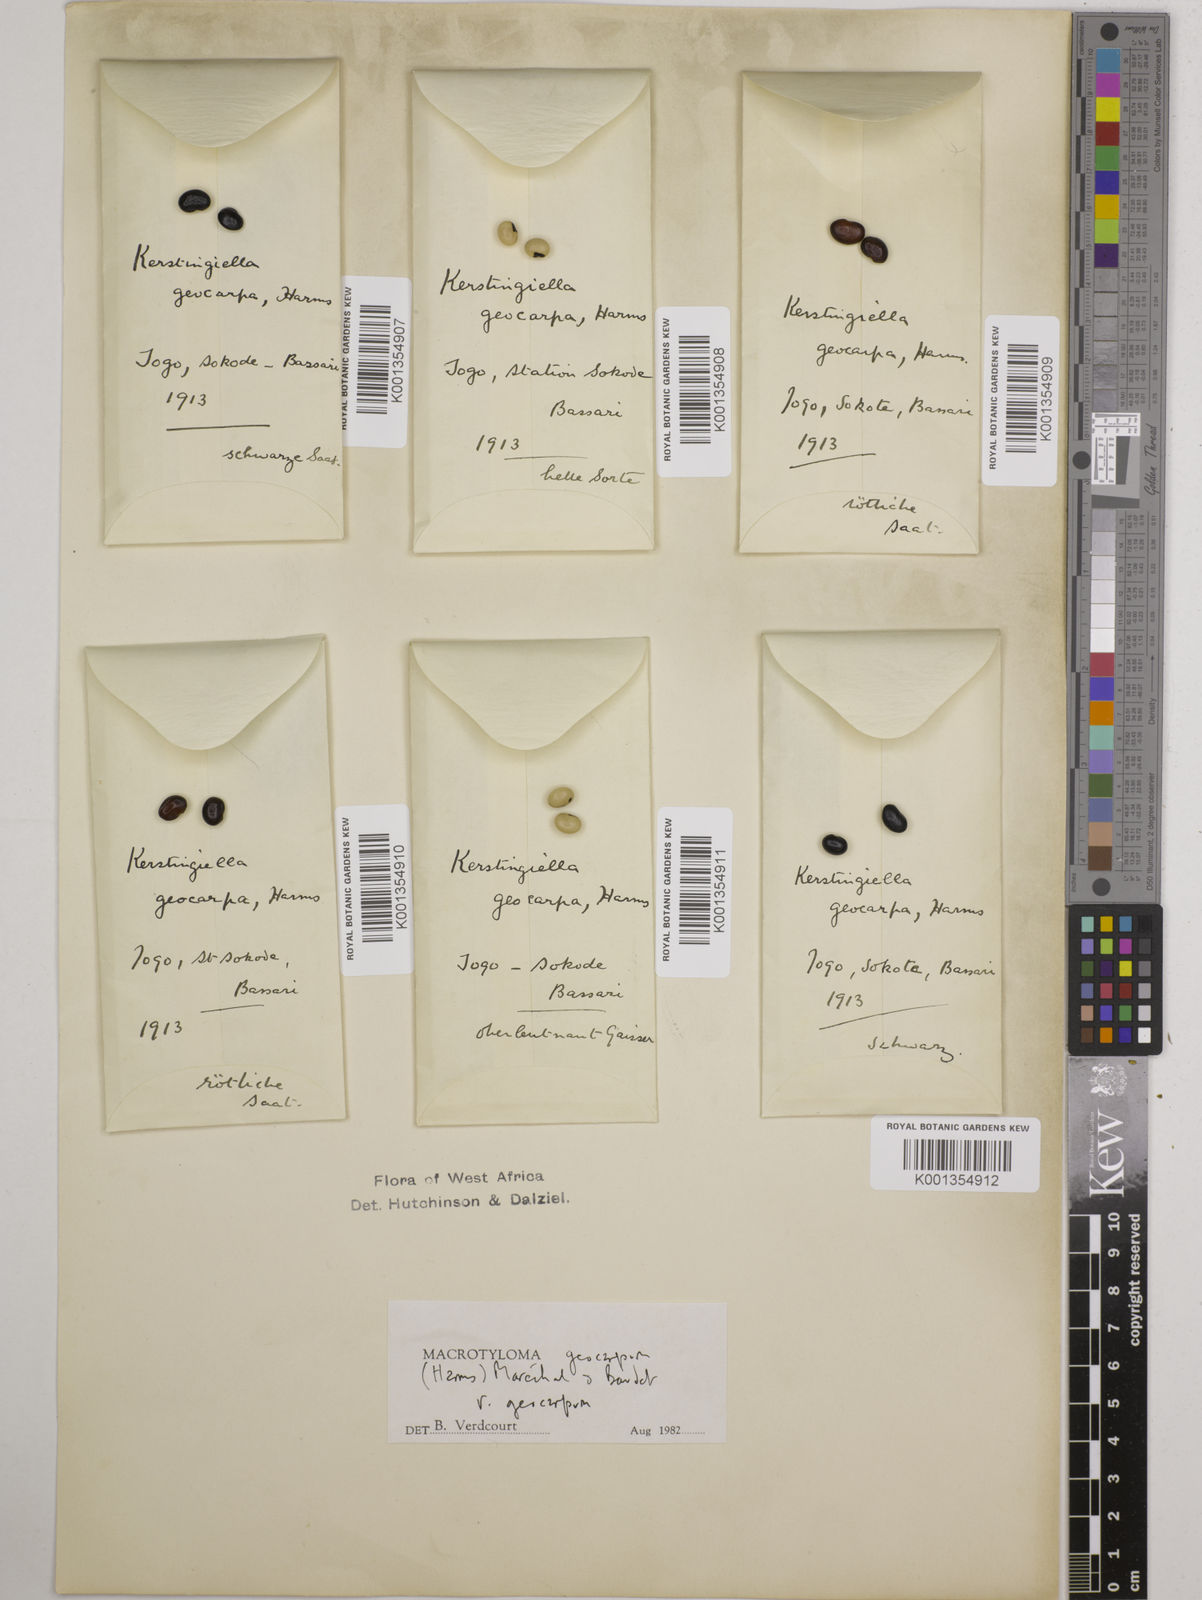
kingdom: Plantae
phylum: Tracheophyta
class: Magnoliopsida
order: Fabales
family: Fabaceae
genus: Macrotyloma
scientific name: Macrotyloma geocarpum
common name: Ground-bean
